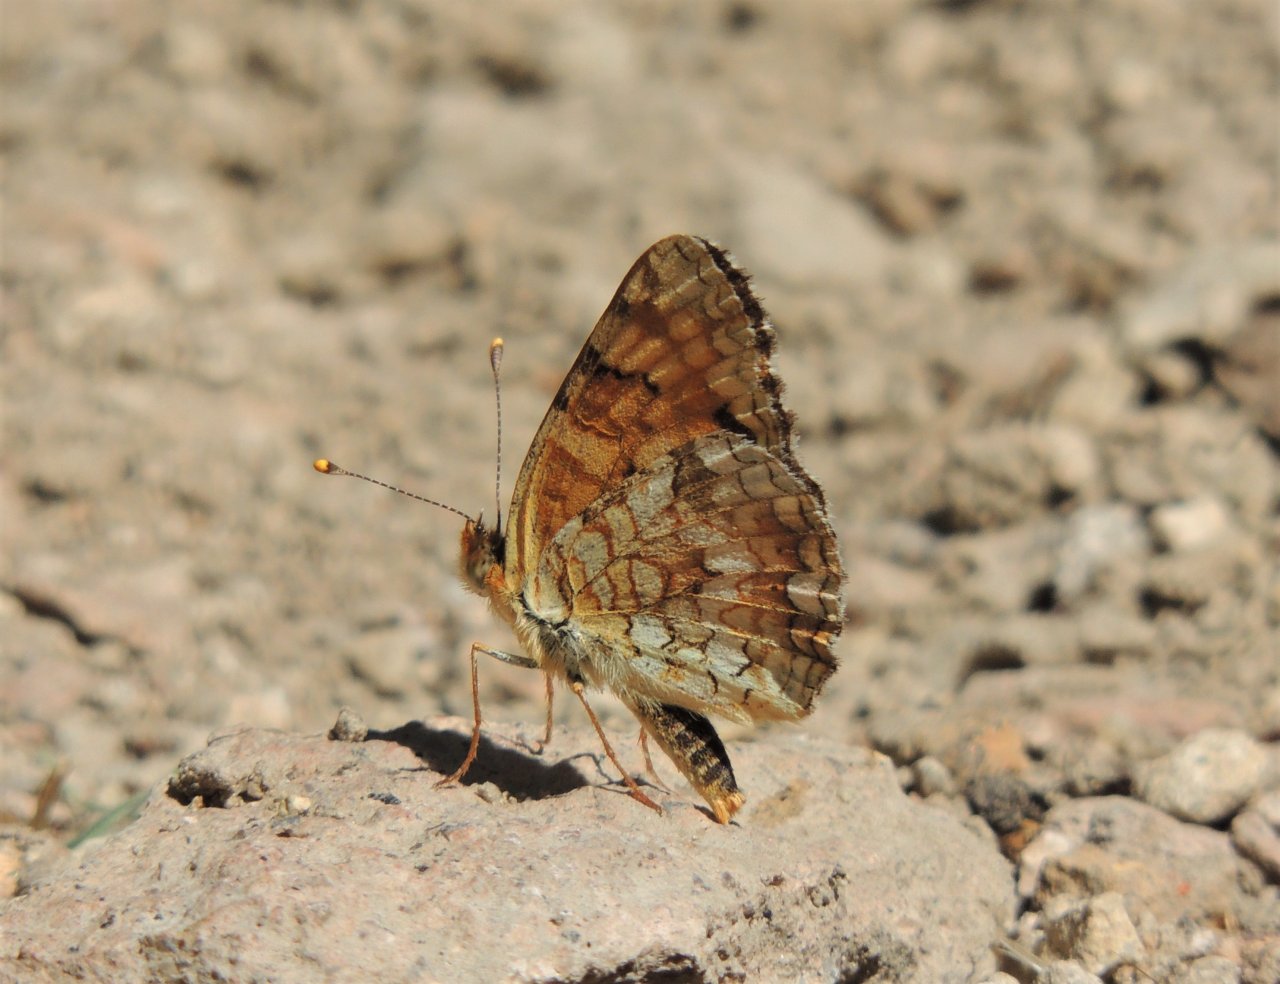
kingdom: Animalia
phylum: Arthropoda
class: Insecta
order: Lepidoptera
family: Nymphalidae
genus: Eresia
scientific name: Eresia aveyrona
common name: Mylitta Crescent
